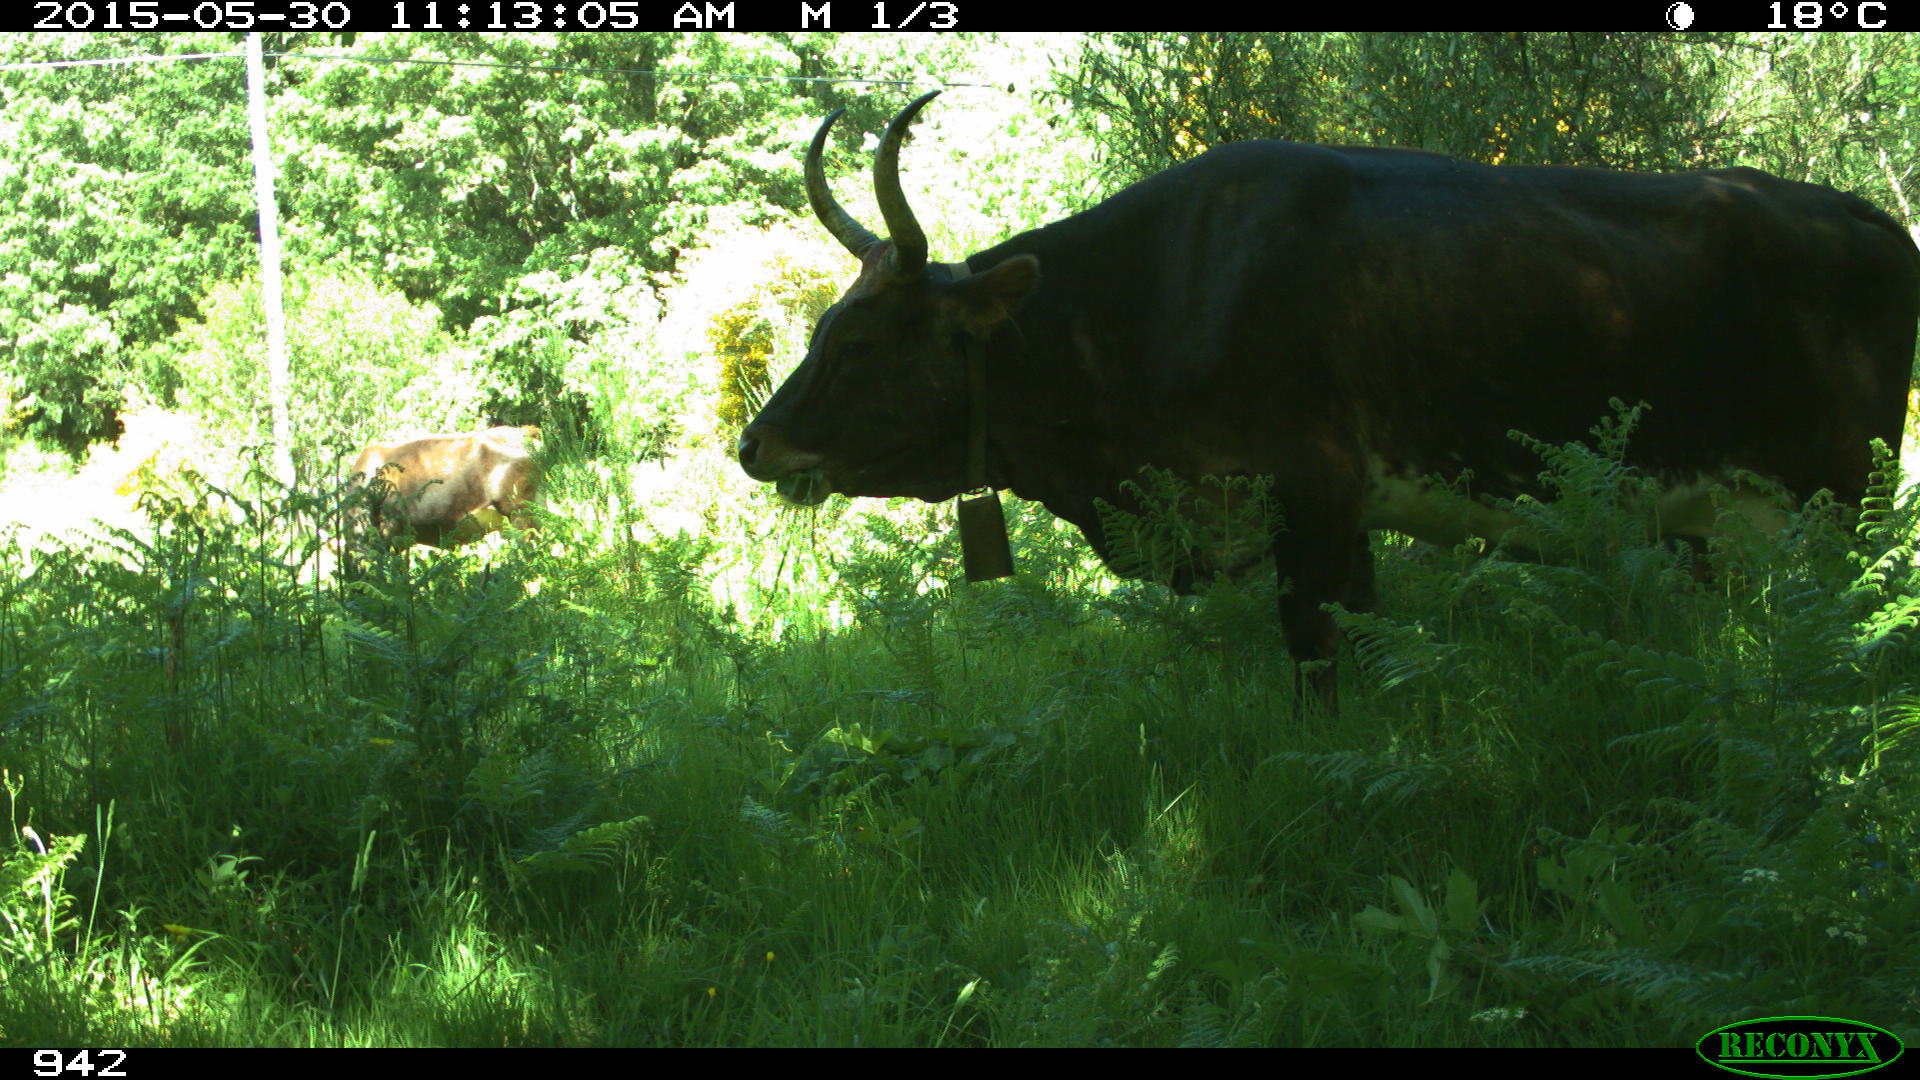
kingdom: Animalia
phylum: Chordata
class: Mammalia
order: Artiodactyla
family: Bovidae
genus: Bos
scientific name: Bos taurus
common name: Domesticated cattle
